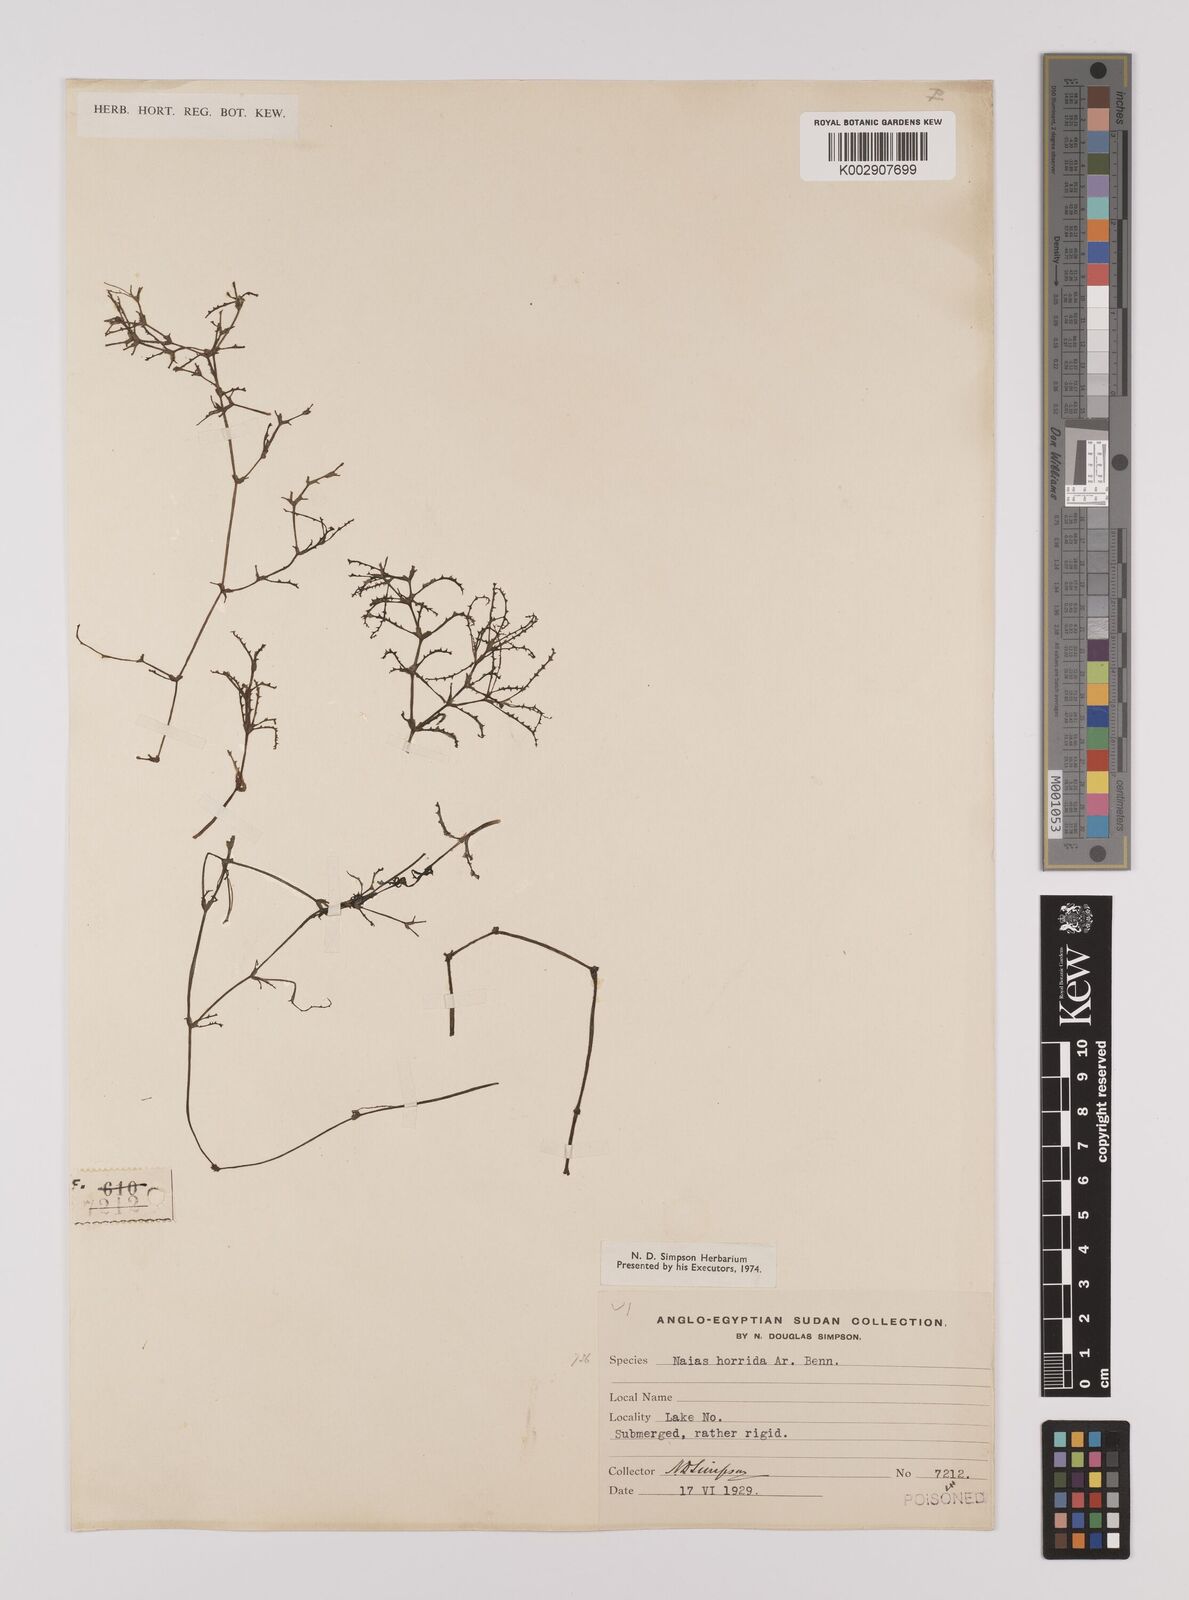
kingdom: Plantae
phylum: Tracheophyta
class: Liliopsida
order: Alismatales
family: Hydrocharitaceae
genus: Najas
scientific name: Najas horrida
